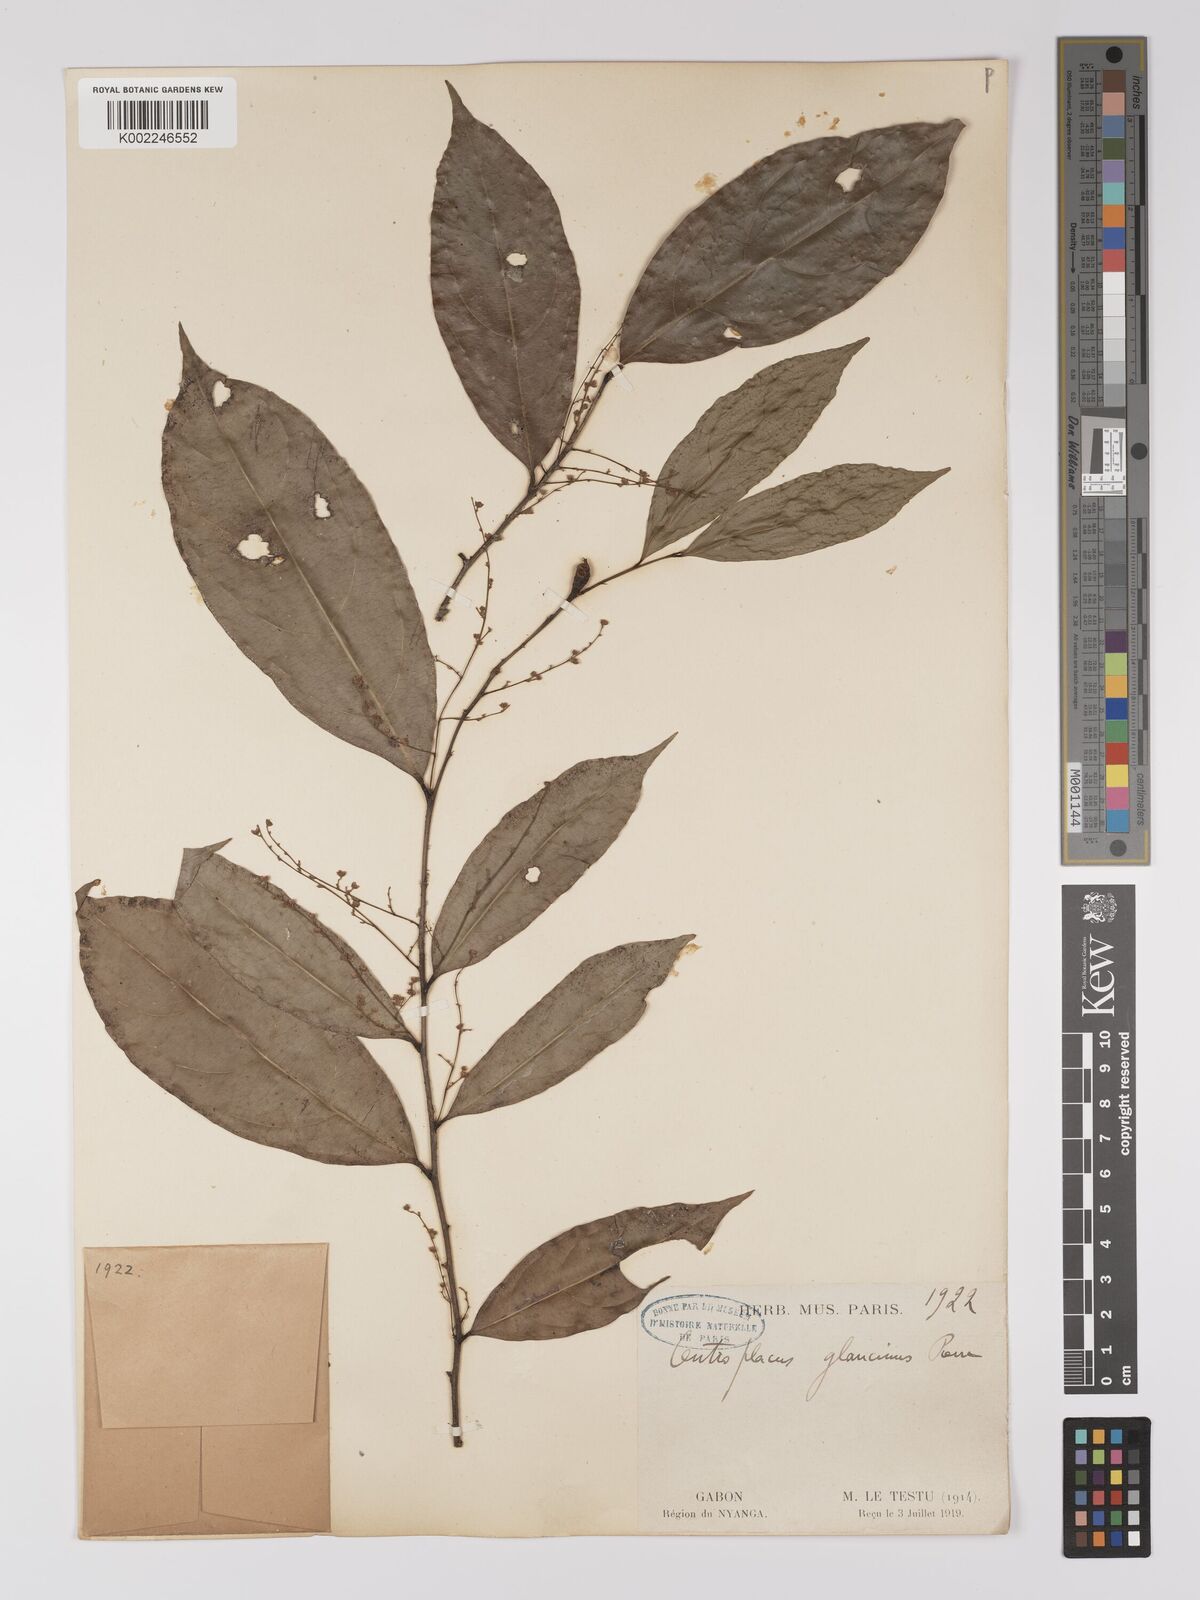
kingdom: Plantae
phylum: Tracheophyta
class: Magnoliopsida
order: Malpighiales
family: Centroplacaceae
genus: Centroplacus
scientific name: Centroplacus glaucinus
